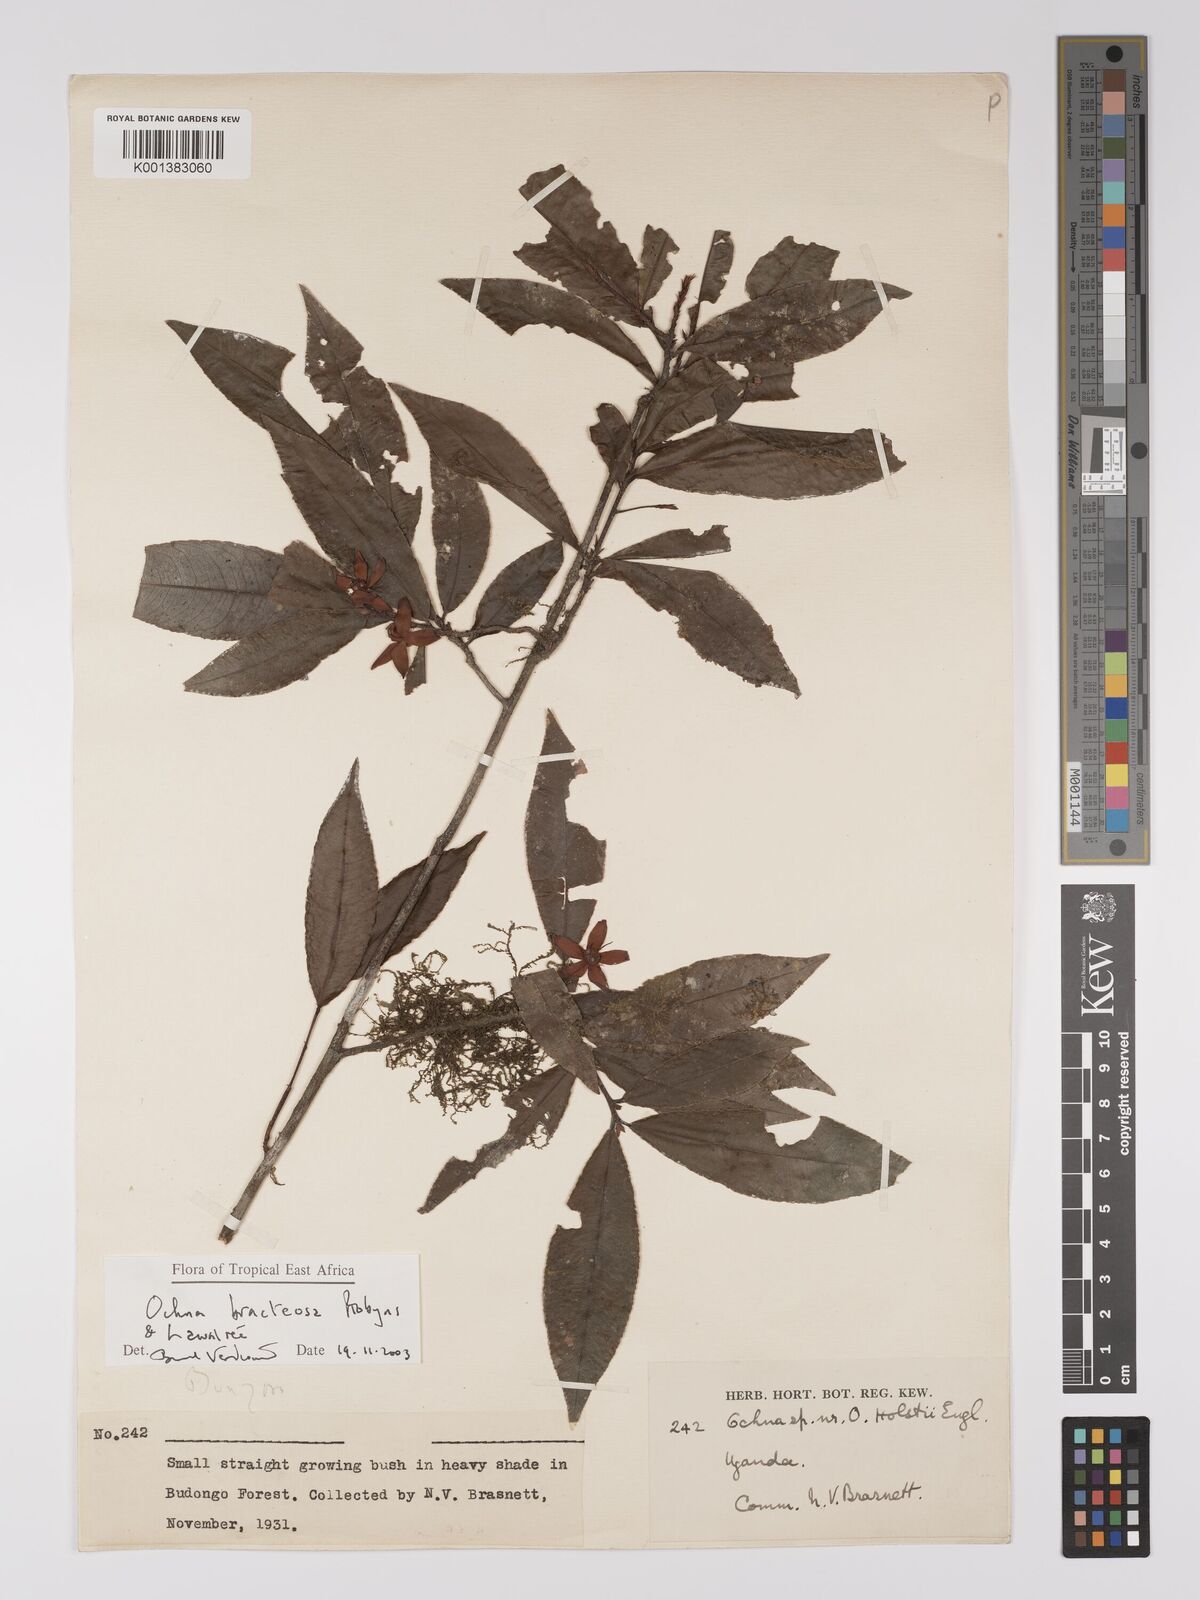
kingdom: Plantae
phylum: Tracheophyta
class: Magnoliopsida
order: Malpighiales
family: Ochnaceae
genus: Ochna
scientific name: Ochna bracteosa
